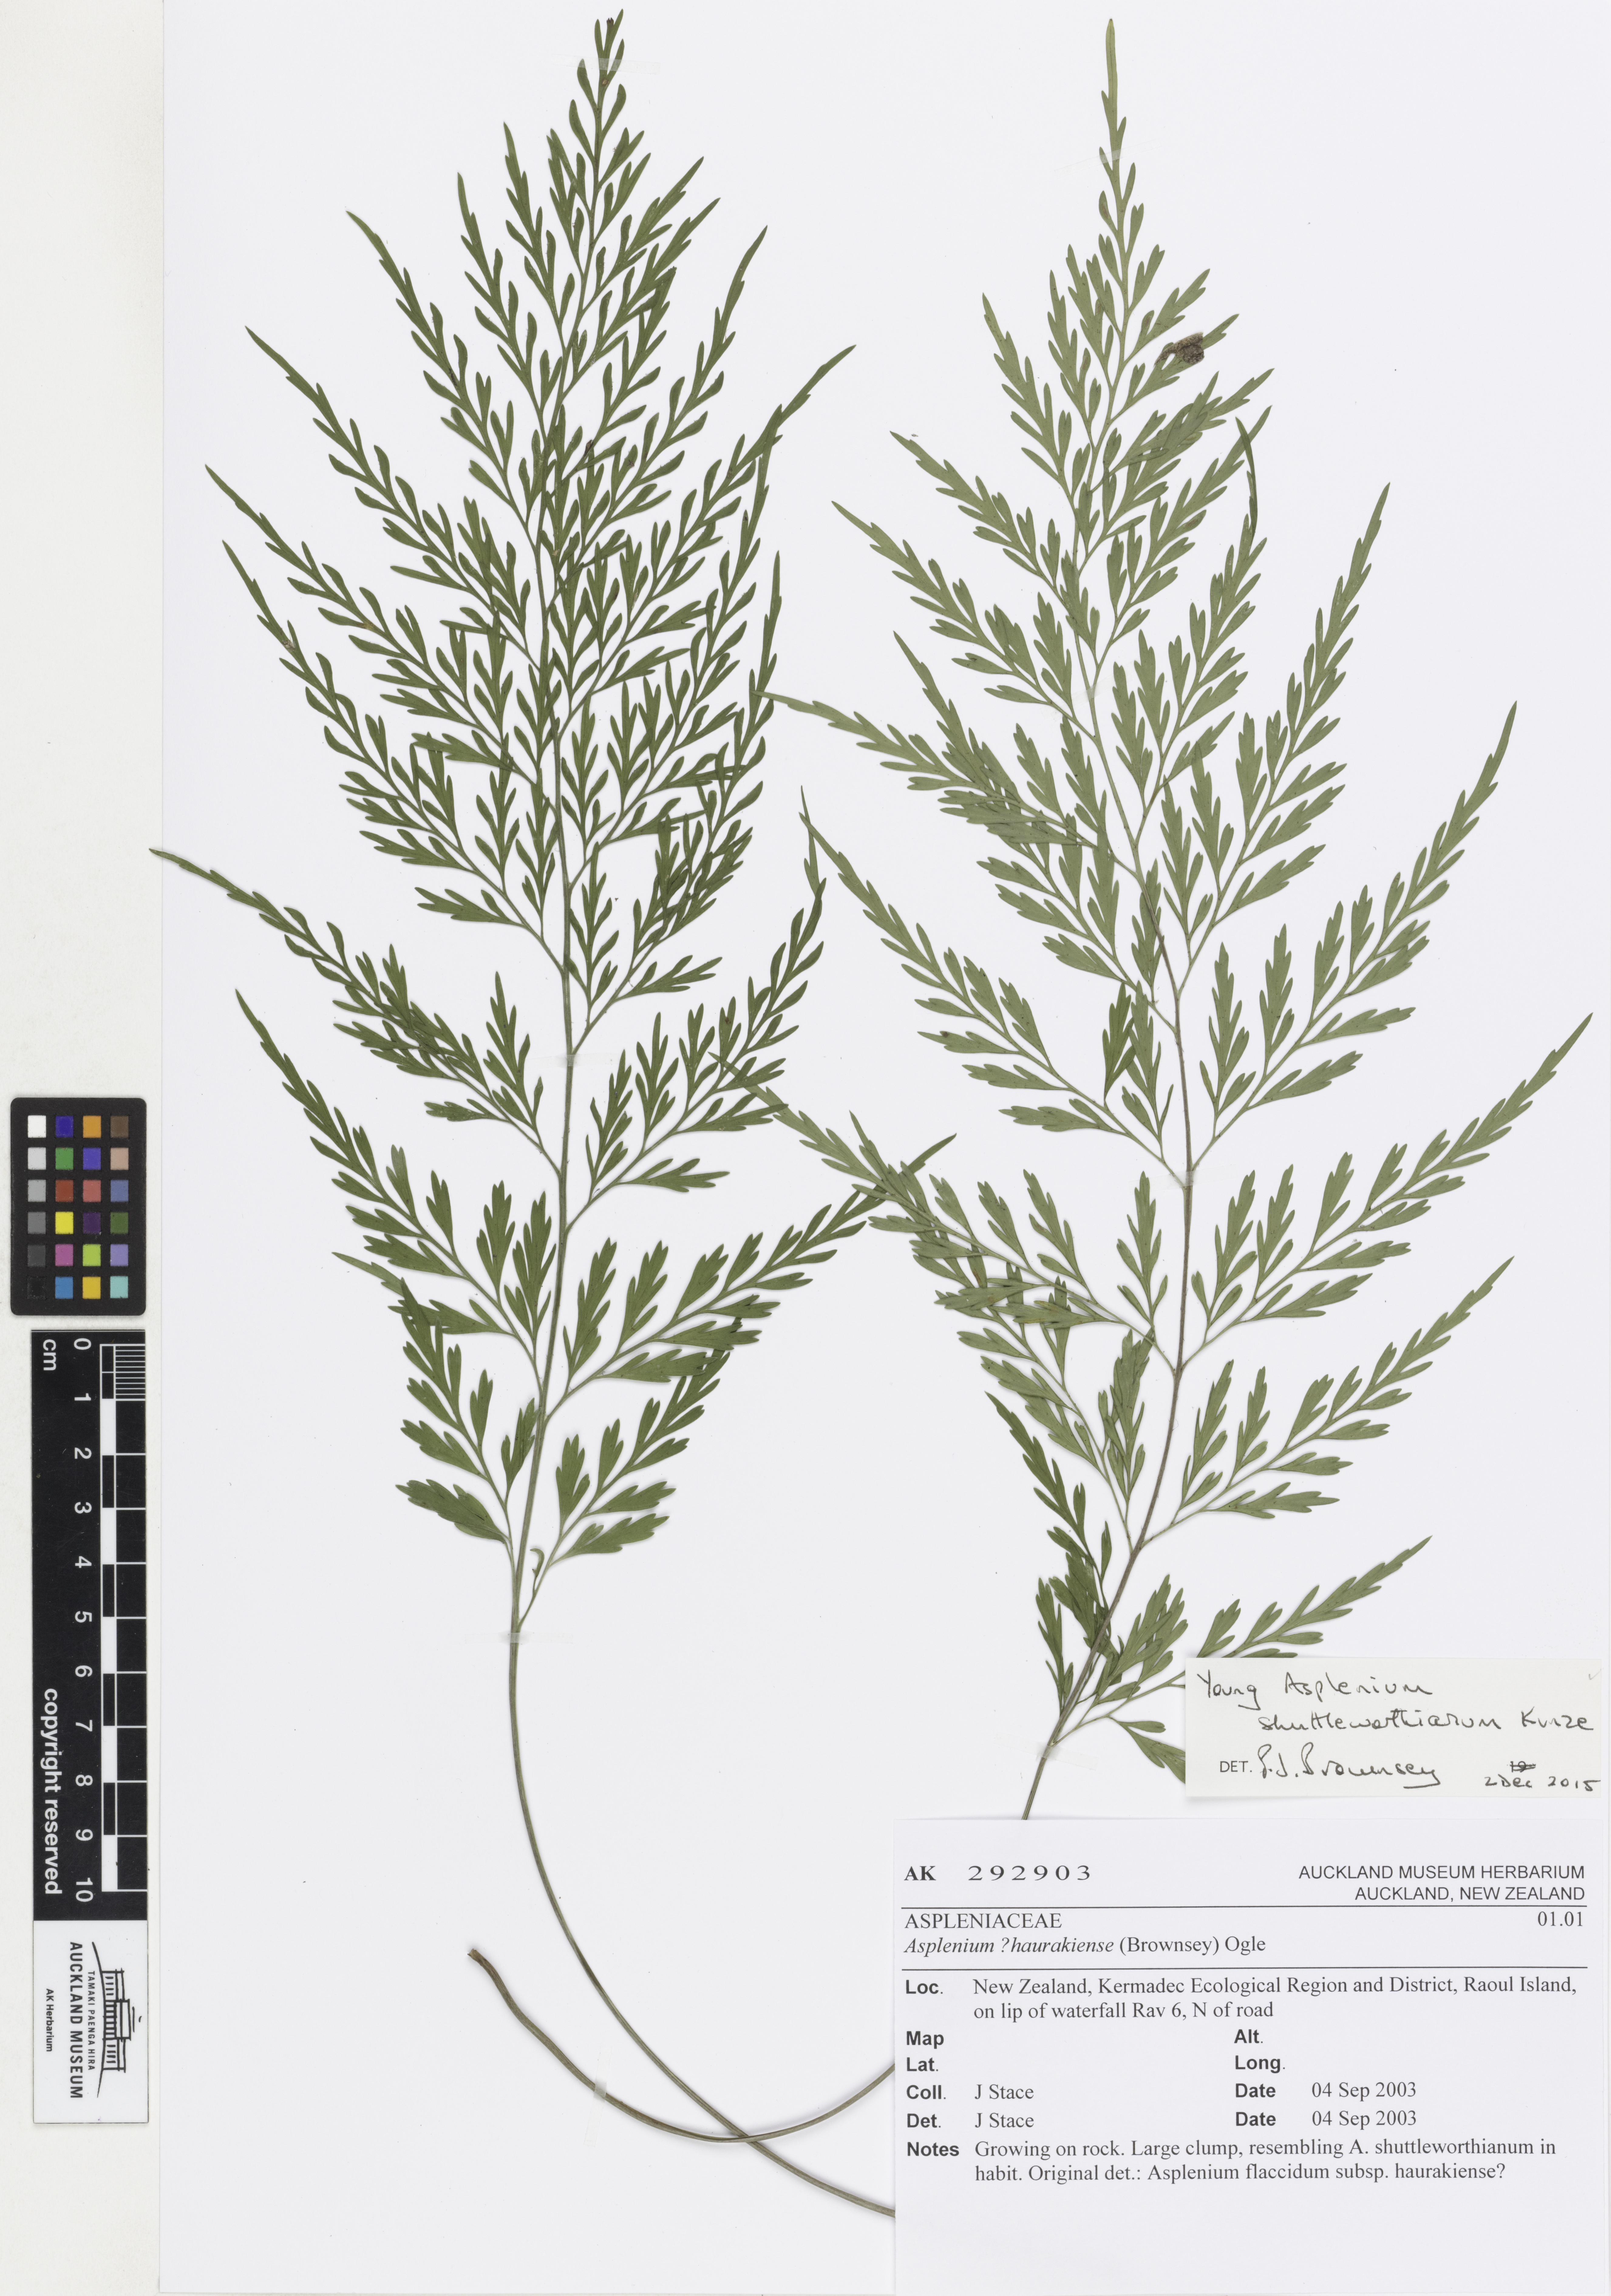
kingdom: Plantae
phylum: Tracheophyta
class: Polypodiopsida
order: Polypodiales
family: Aspleniaceae
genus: Asplenium
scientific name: Asplenium shuttleworthianum
